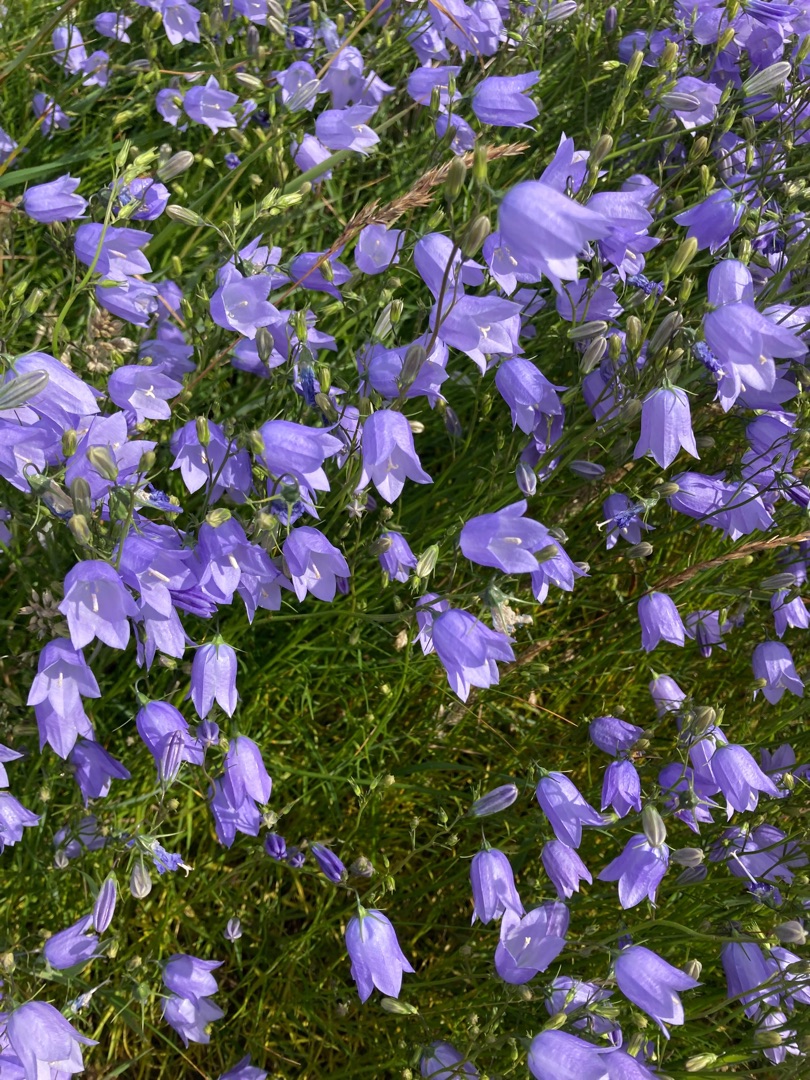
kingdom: Plantae
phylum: Tracheophyta
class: Magnoliopsida
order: Asterales
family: Campanulaceae
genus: Campanula
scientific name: Campanula rotundifolia
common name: Liden klokke
